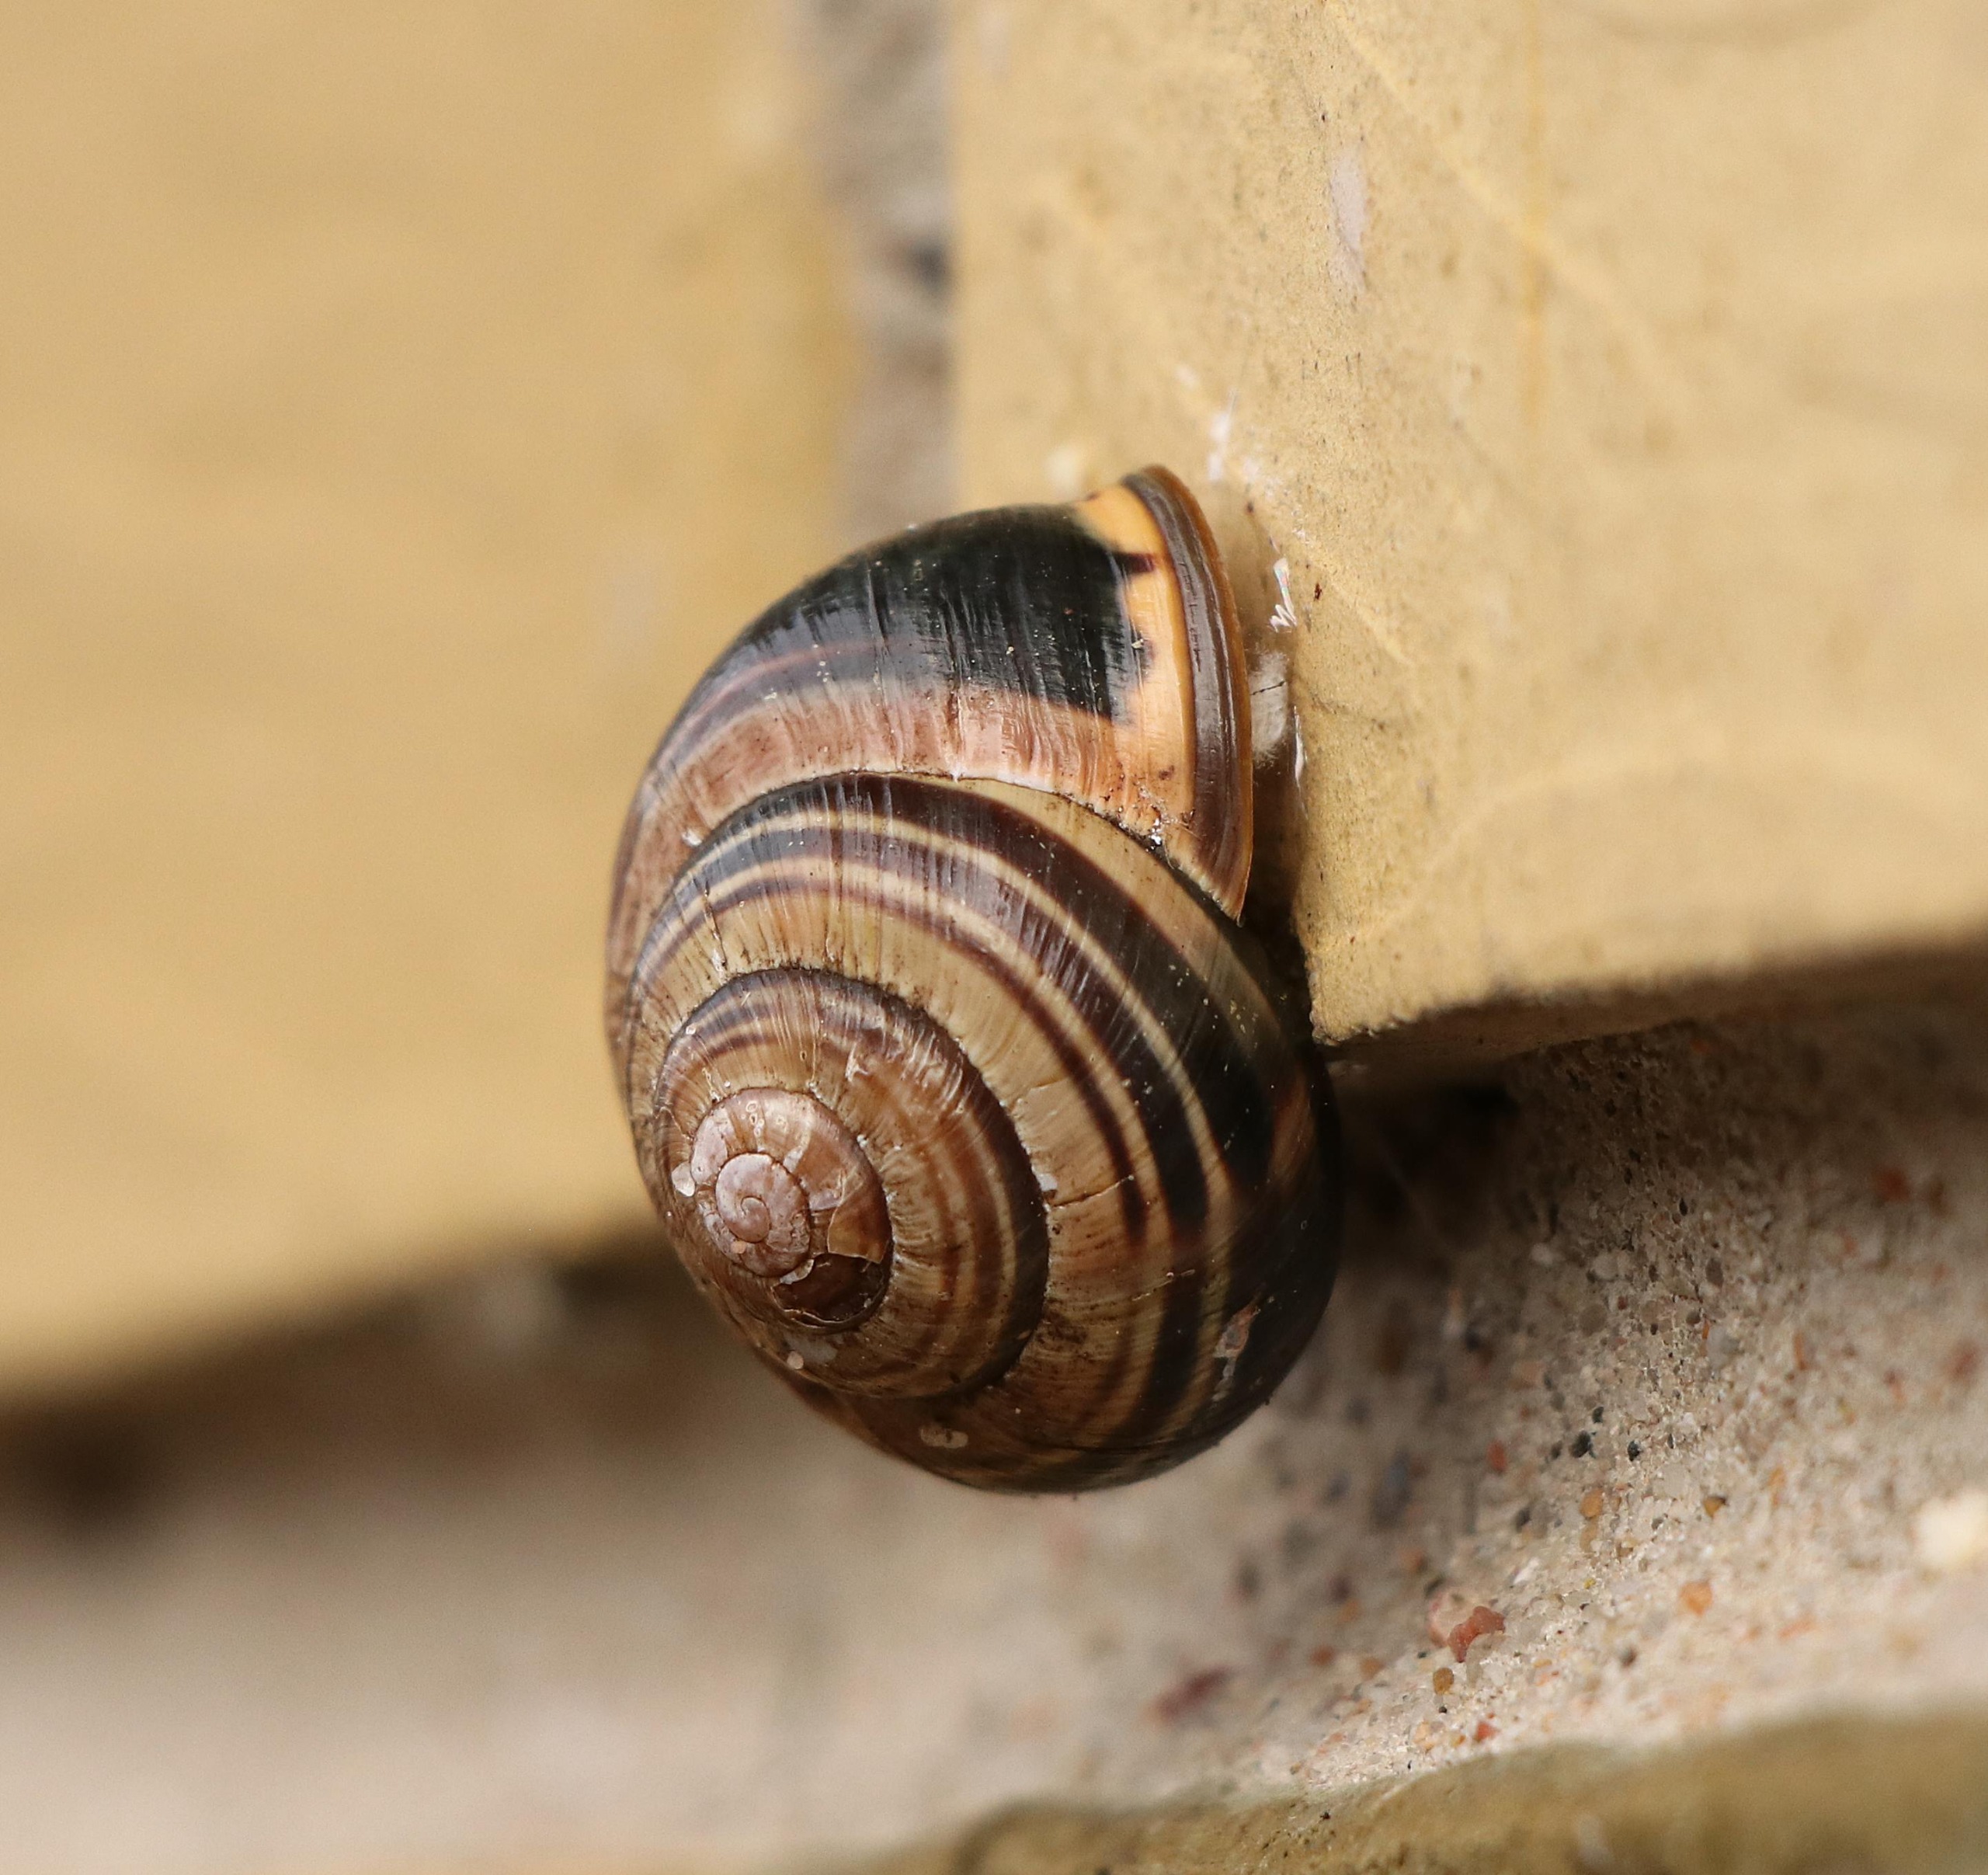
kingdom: Animalia
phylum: Mollusca
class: Gastropoda
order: Stylommatophora
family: Helicidae
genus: Cepaea
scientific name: Cepaea nemoralis
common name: Lundsnegl
